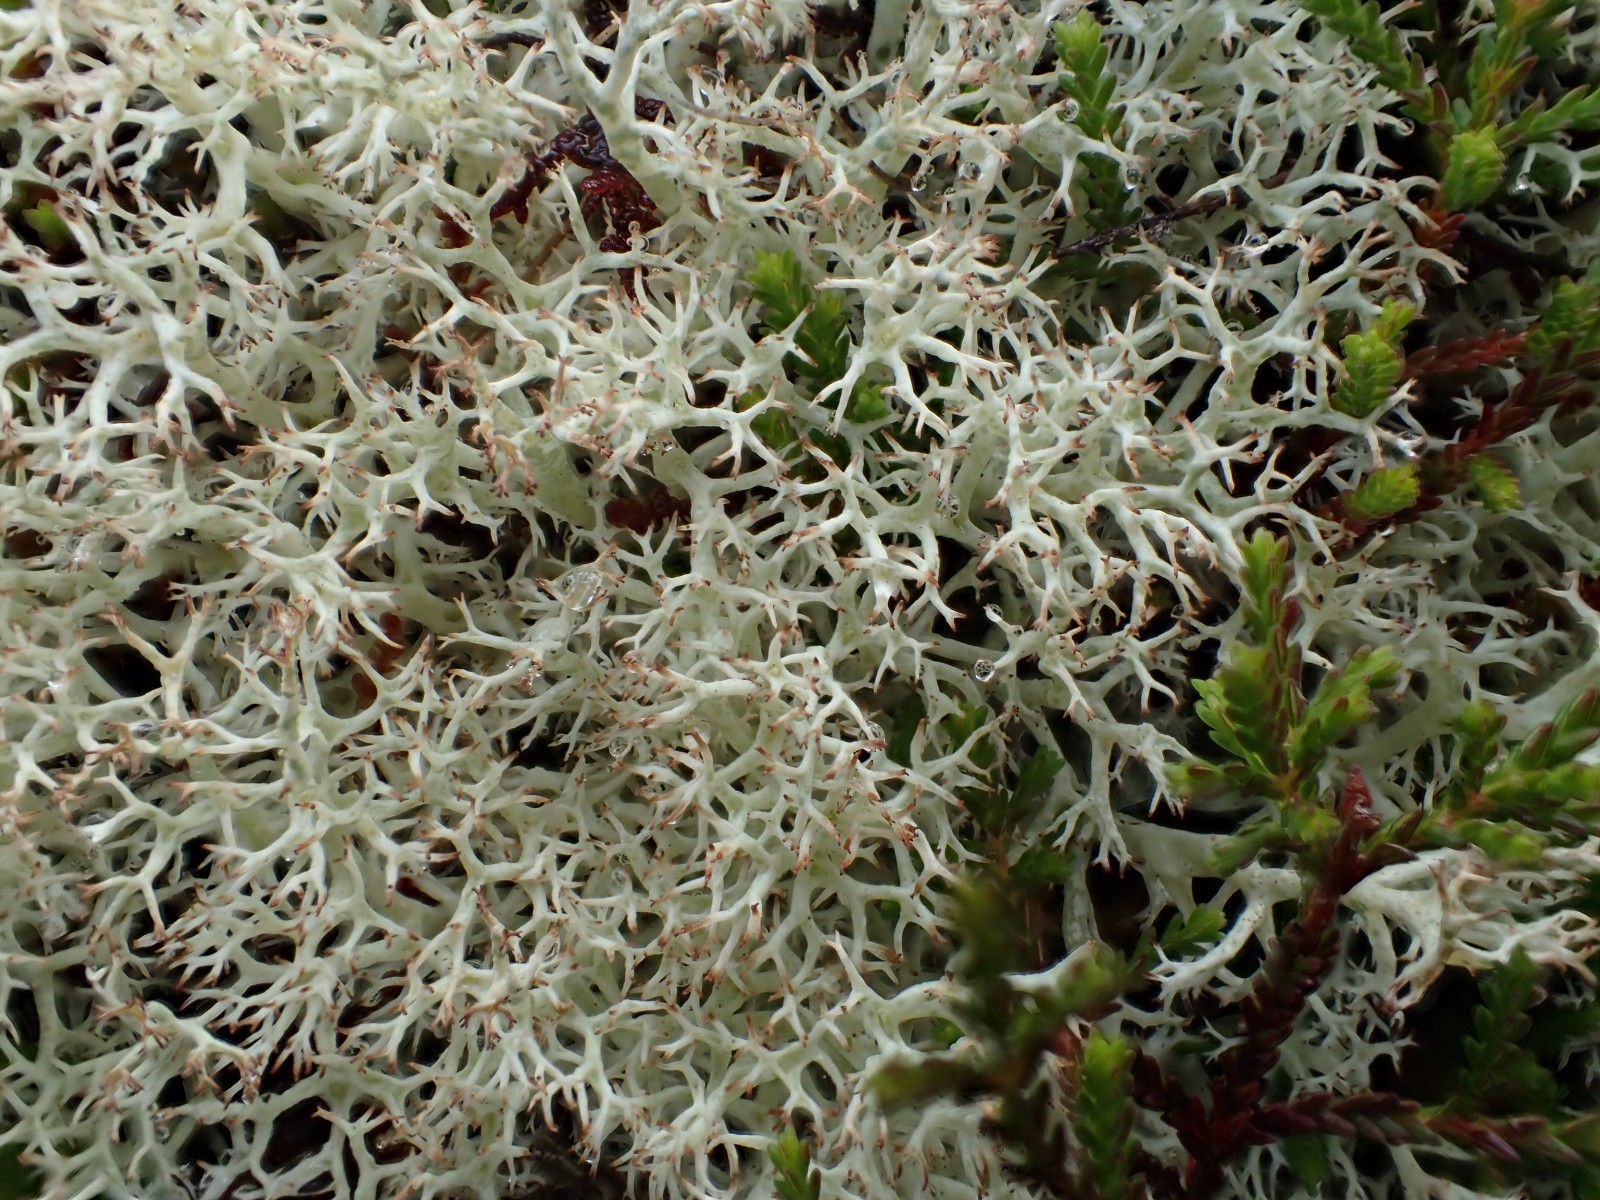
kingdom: Fungi
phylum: Ascomycota
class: Lecanoromycetes
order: Lecanorales
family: Cladoniaceae
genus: Cladonia
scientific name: Cladonia portentosa
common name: hede-rensdyrlav
